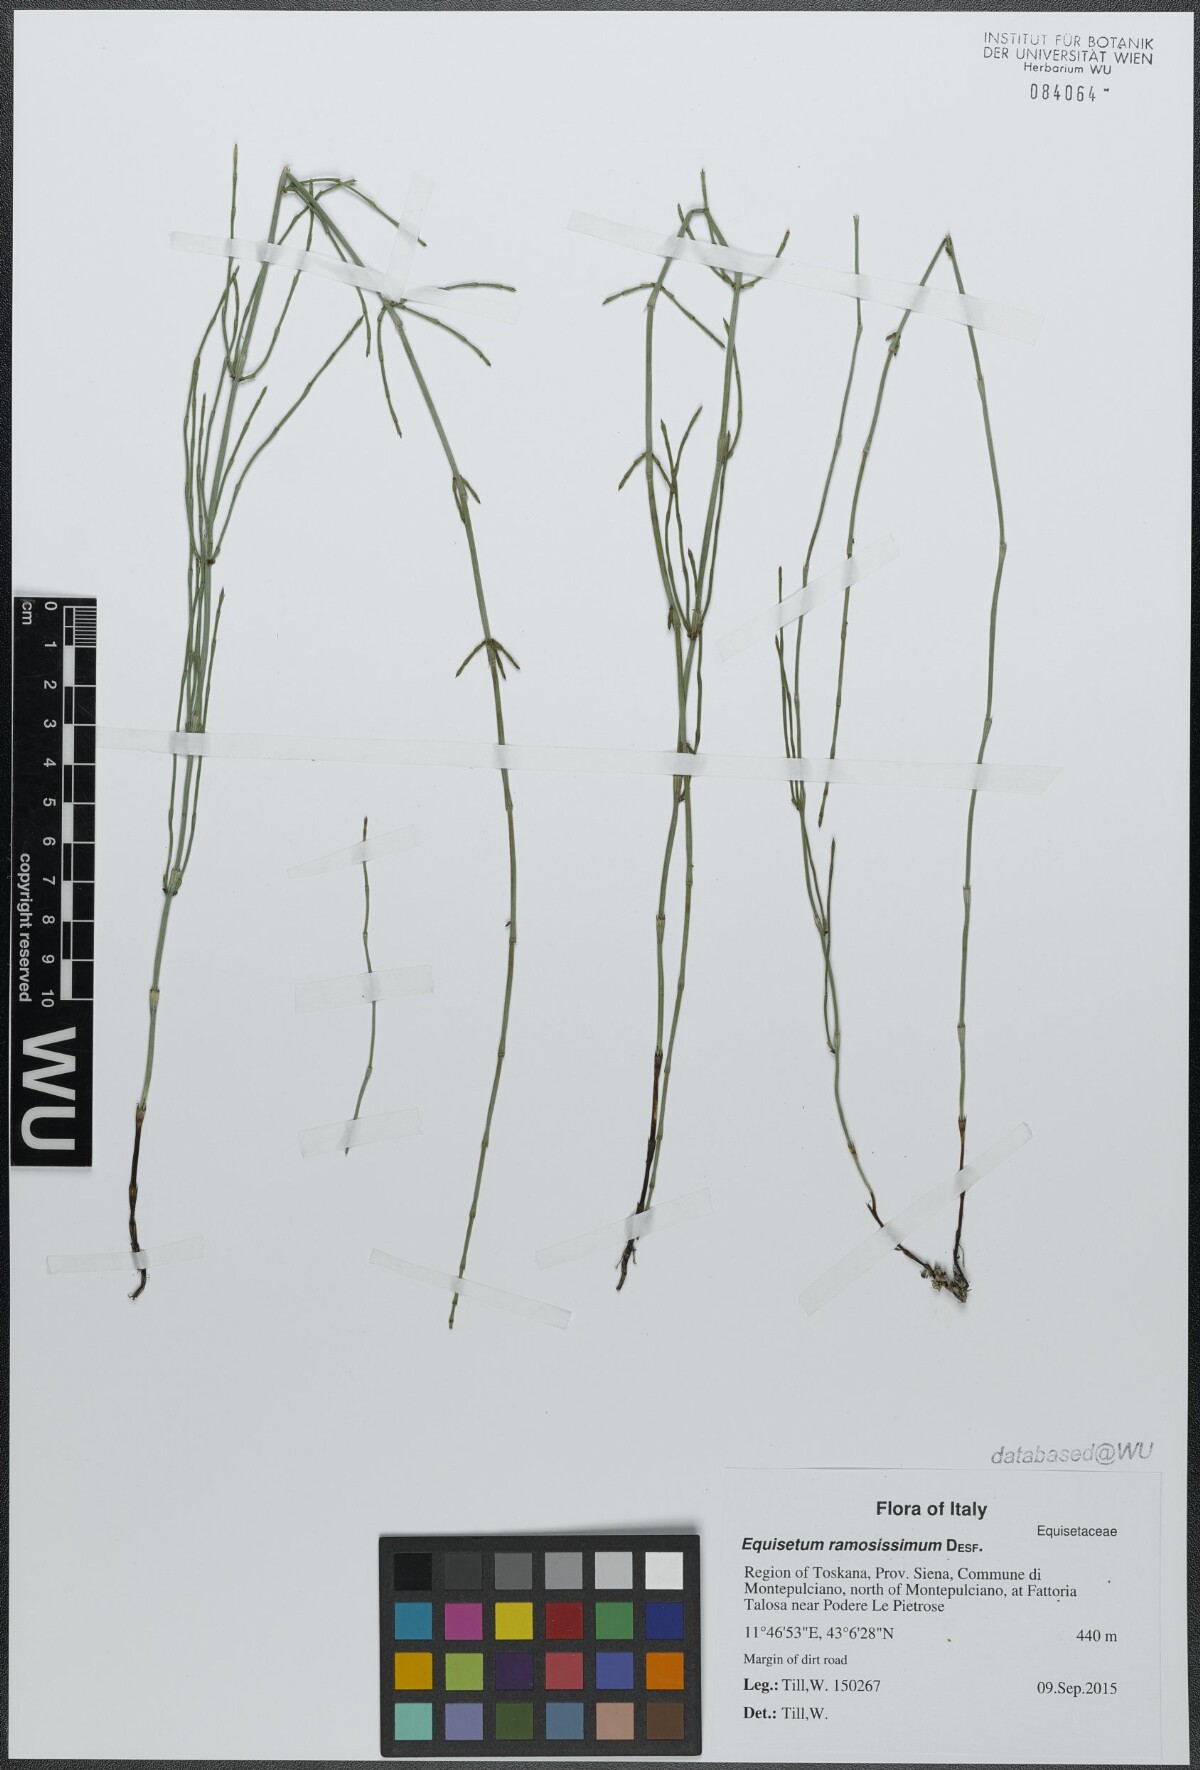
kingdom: Plantae
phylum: Tracheophyta
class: Polypodiopsida
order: Equisetales
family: Equisetaceae
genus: Equisetum
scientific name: Equisetum ramosissimum
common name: Branched horsetail
